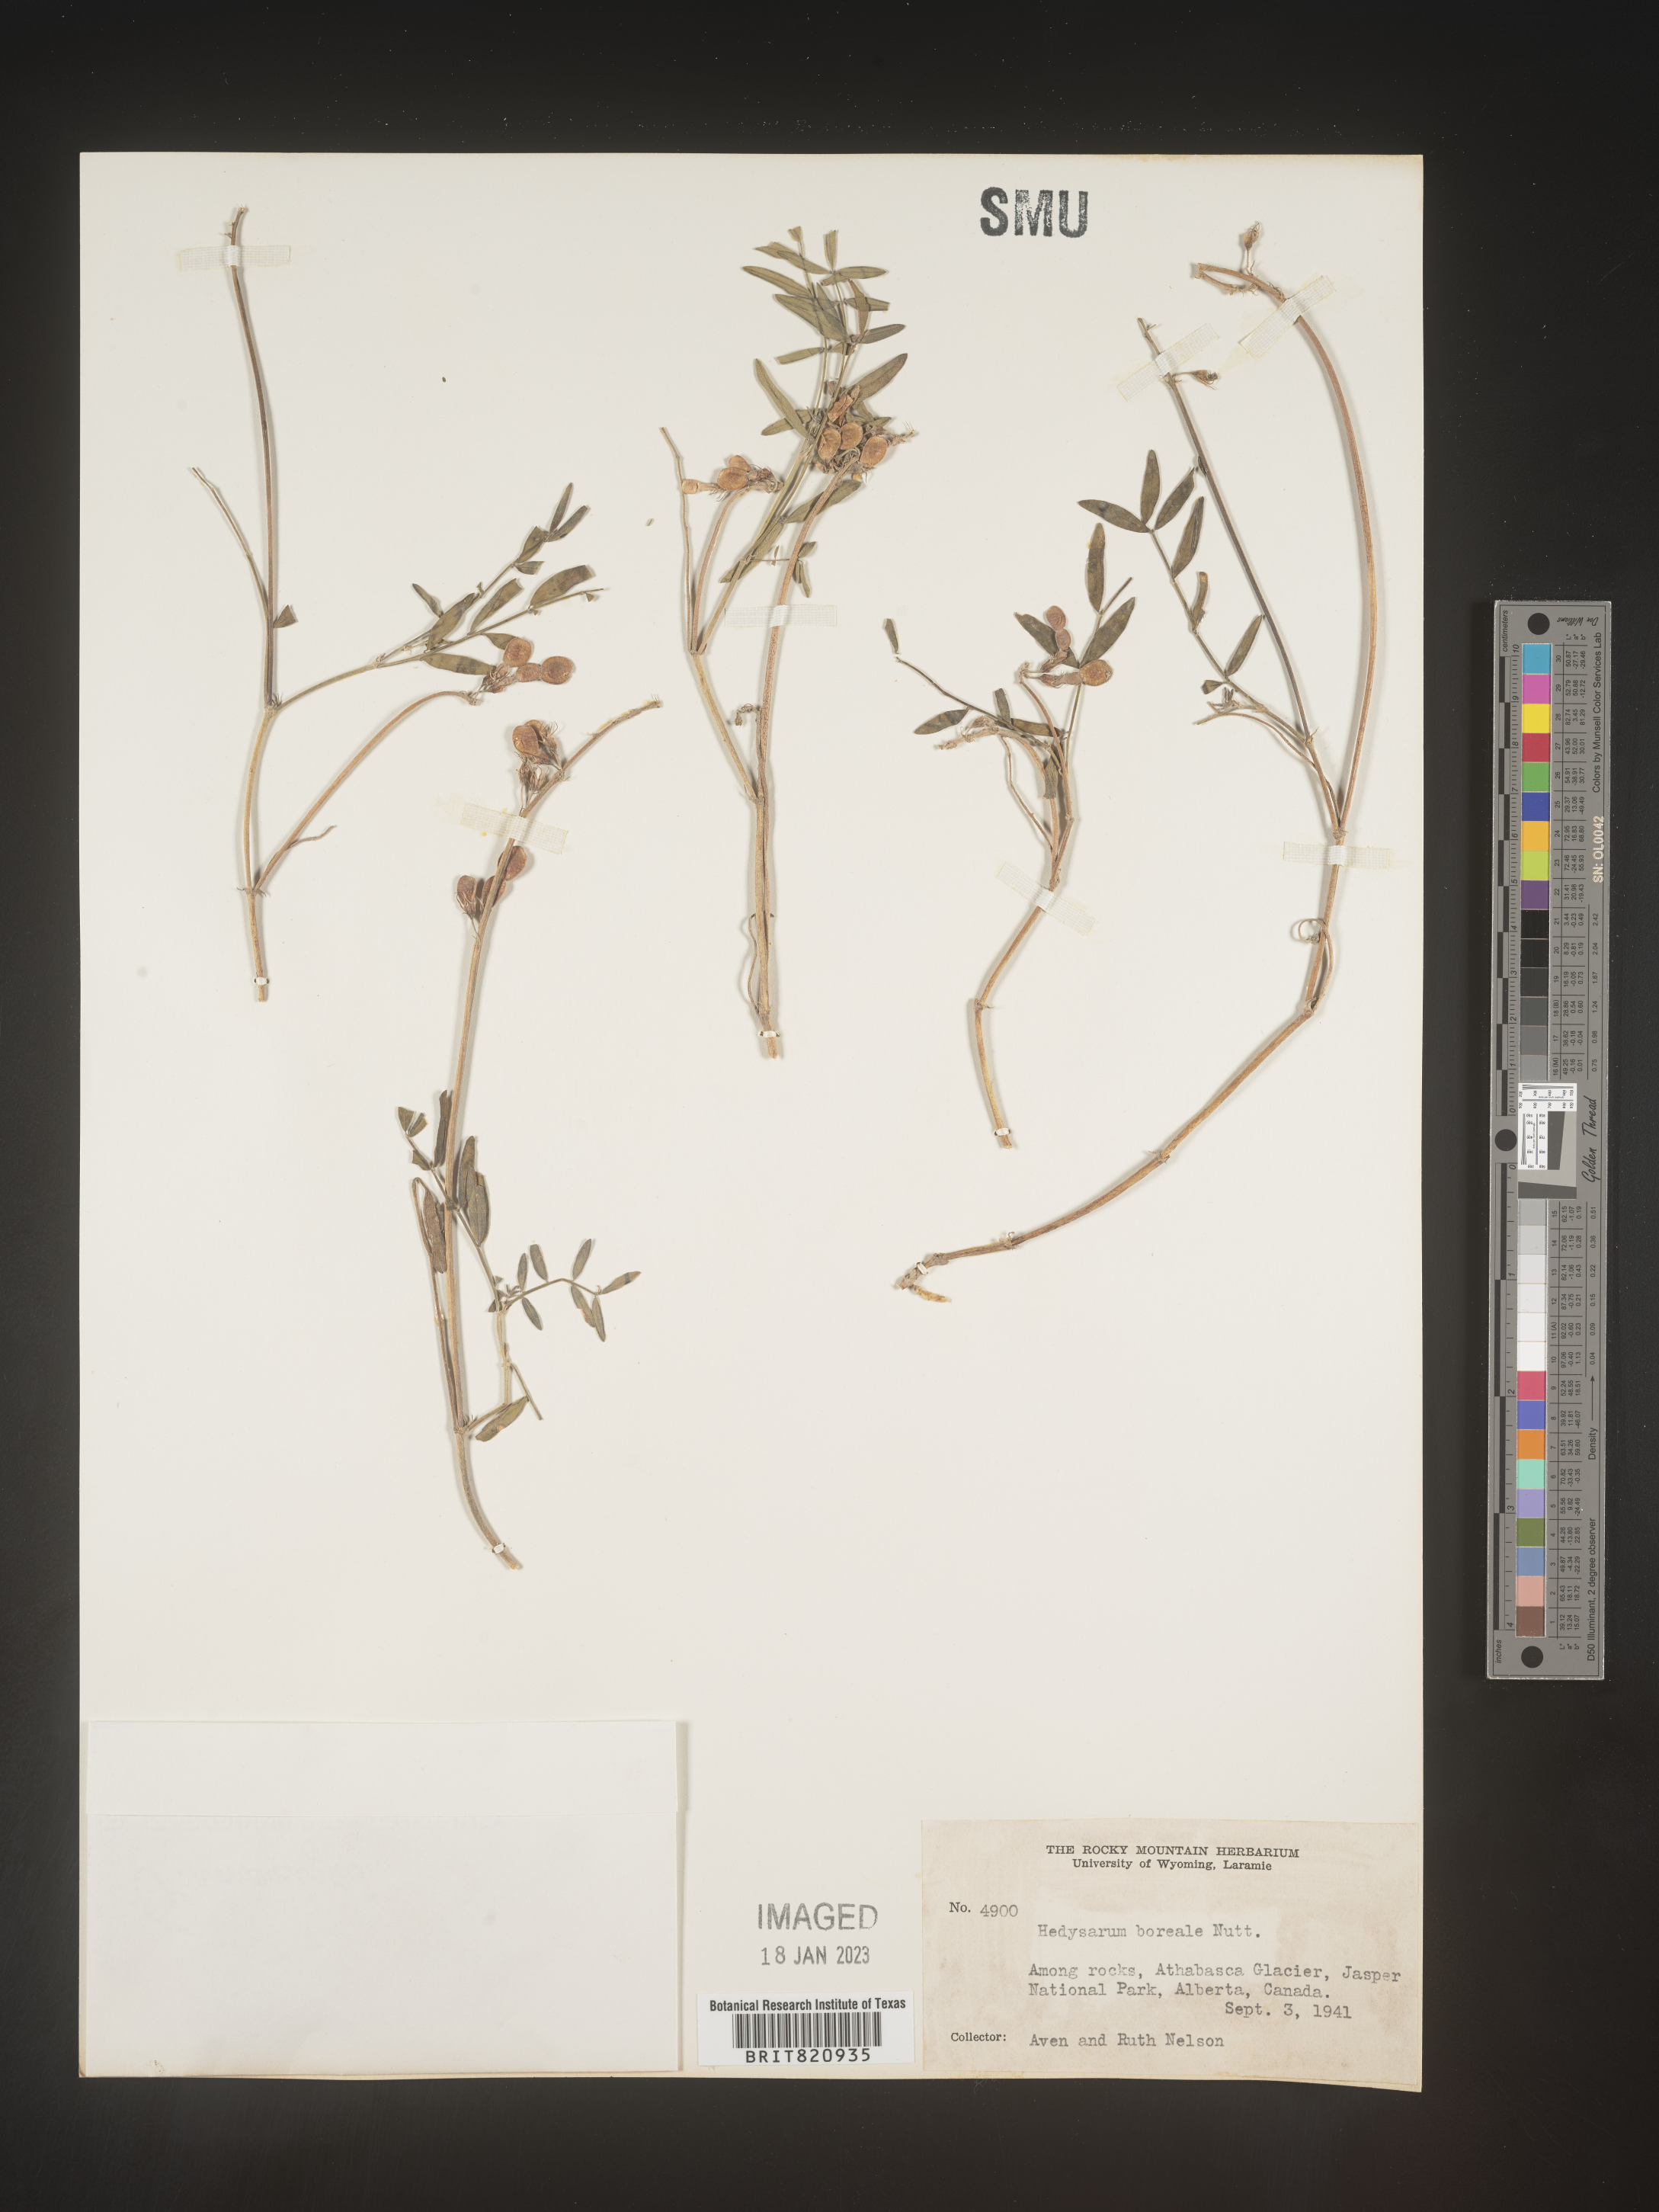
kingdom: Plantae
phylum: Tracheophyta
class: Magnoliopsida
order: Fabales
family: Fabaceae
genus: Hedysarum
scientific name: Hedysarum boreale
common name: Northern sweet-vetch
